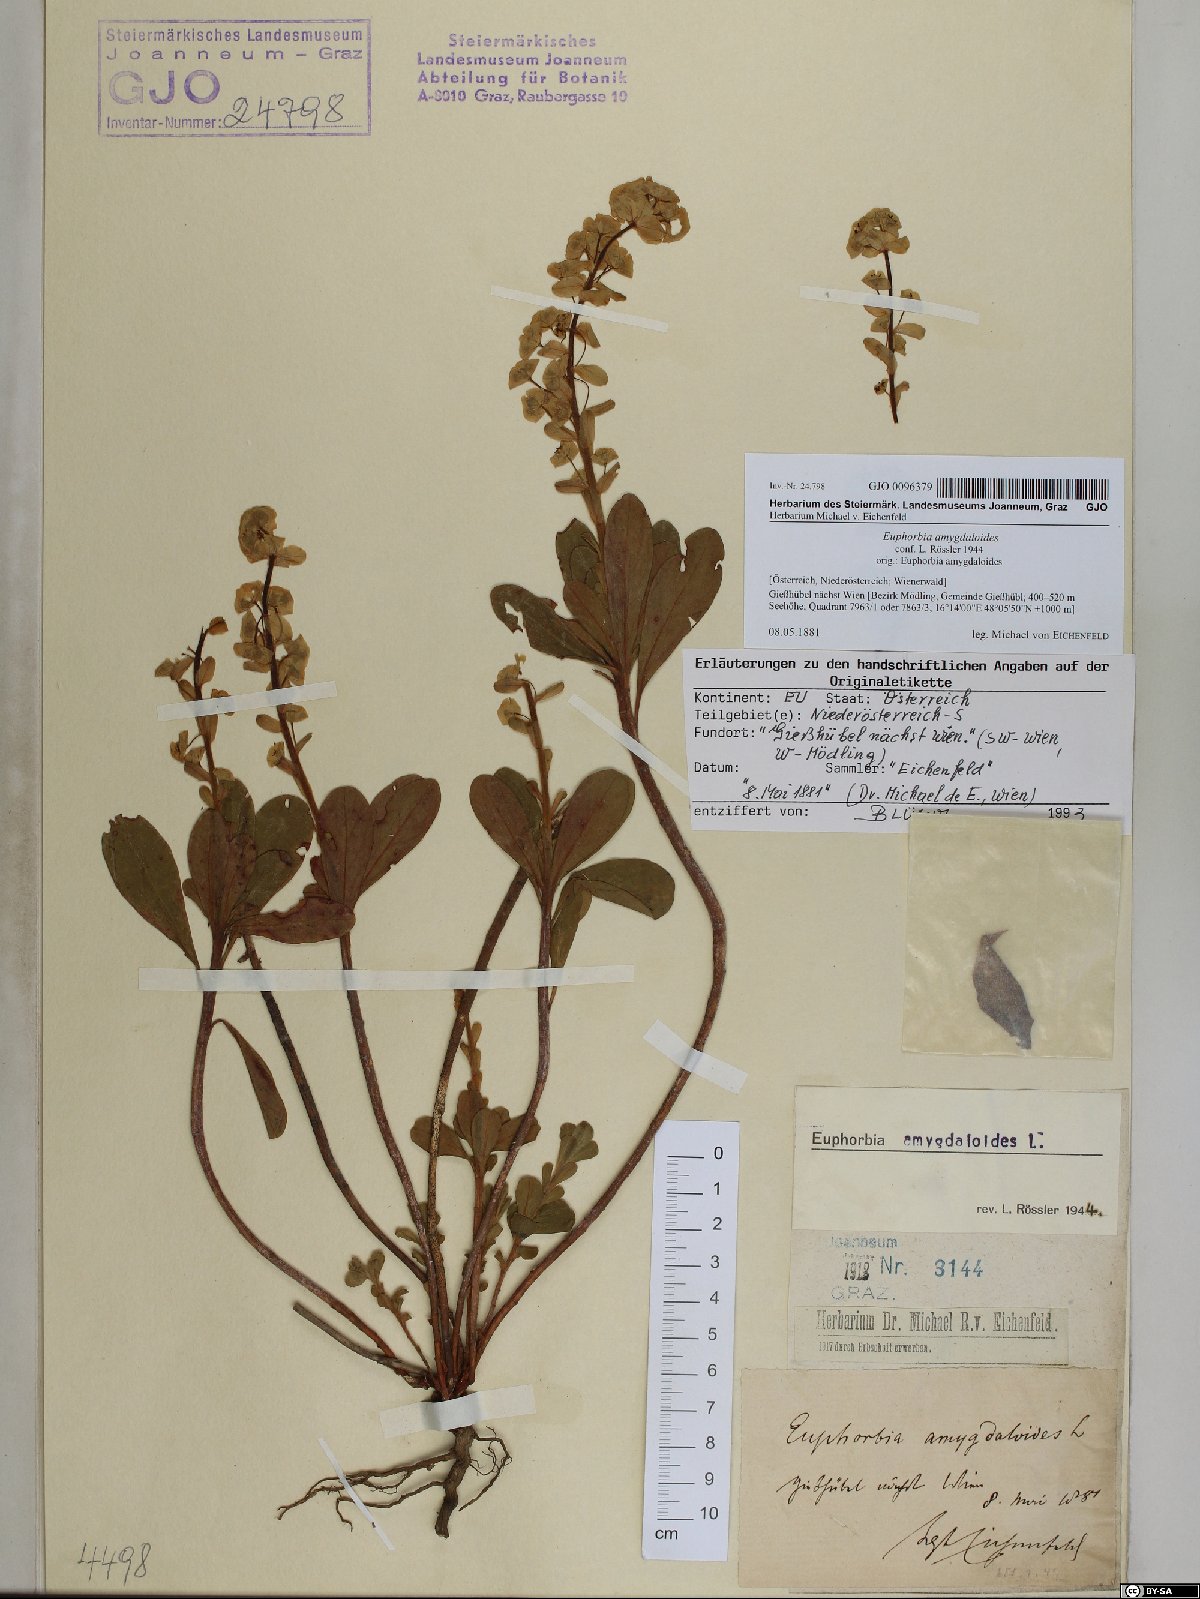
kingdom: Plantae
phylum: Tracheophyta
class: Magnoliopsida
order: Malpighiales
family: Euphorbiaceae
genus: Euphorbia
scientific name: Euphorbia amygdaloides
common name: Wood spurge
